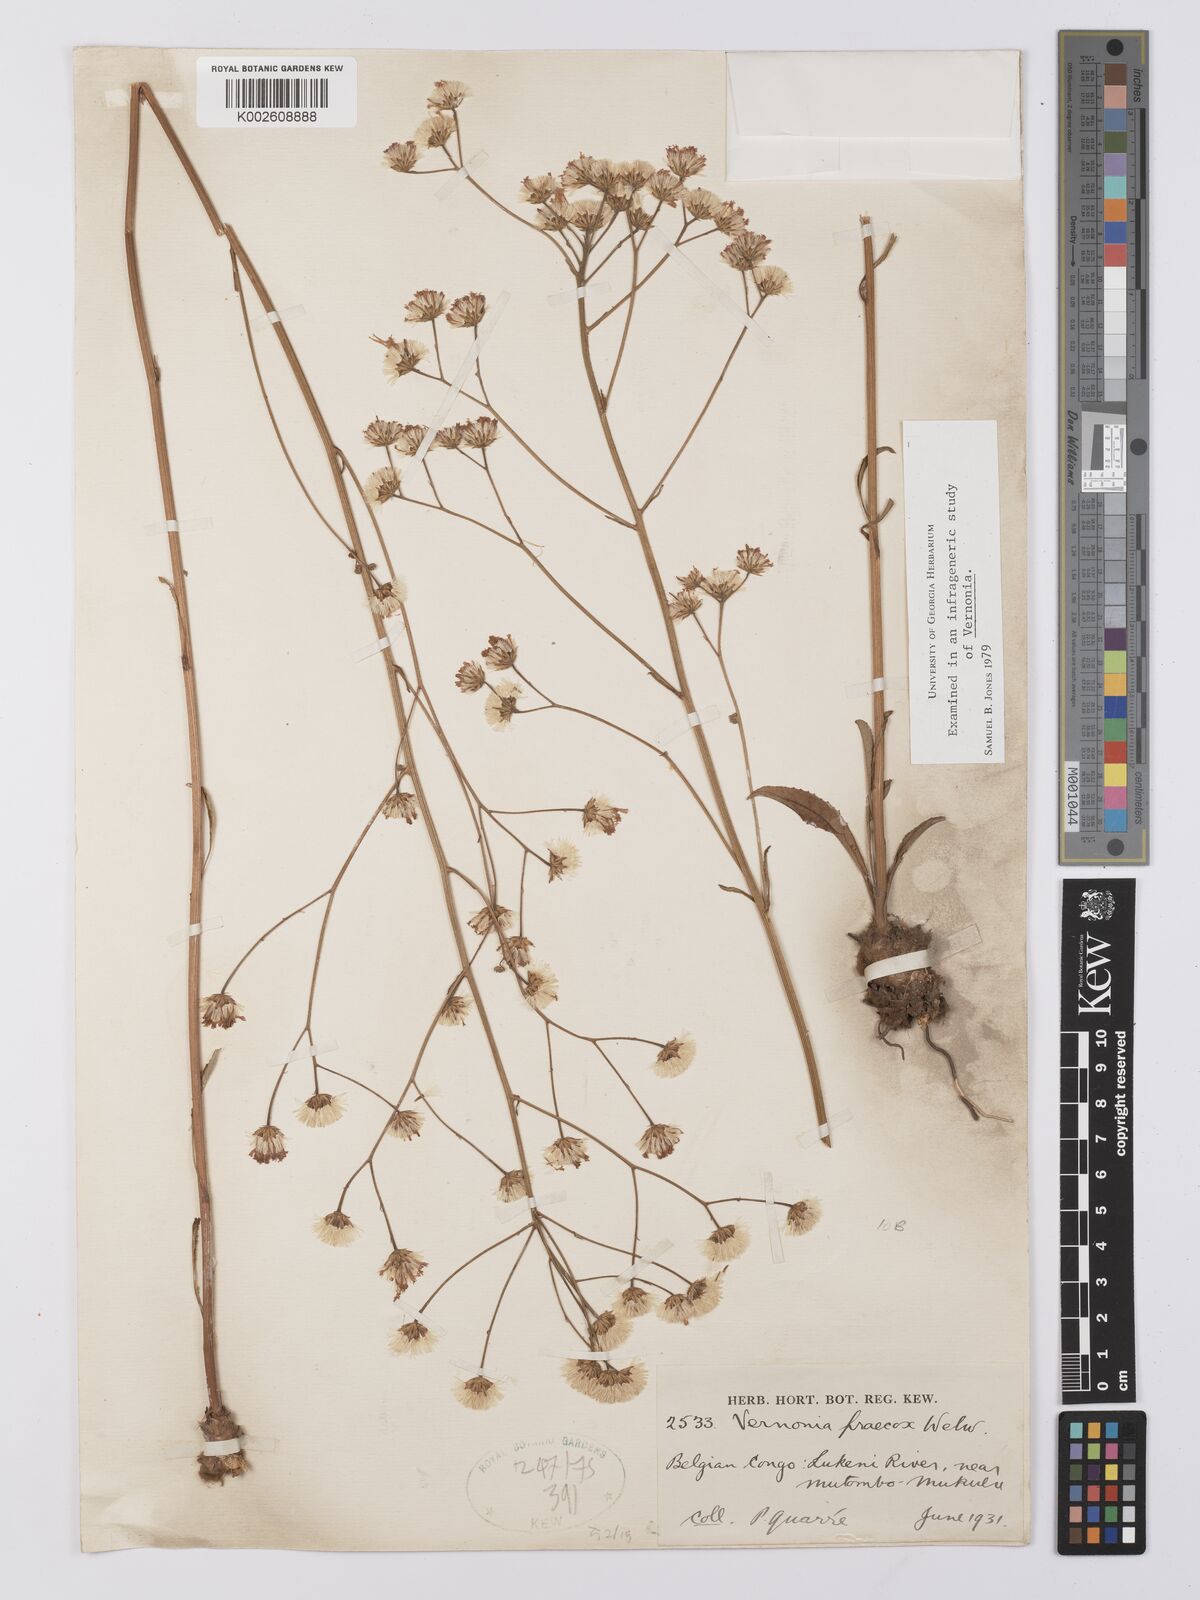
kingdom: Plantae
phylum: Tracheophyta
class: Magnoliopsida
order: Asterales
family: Asteraceae
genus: Vernonella
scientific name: Vernonella praecox
